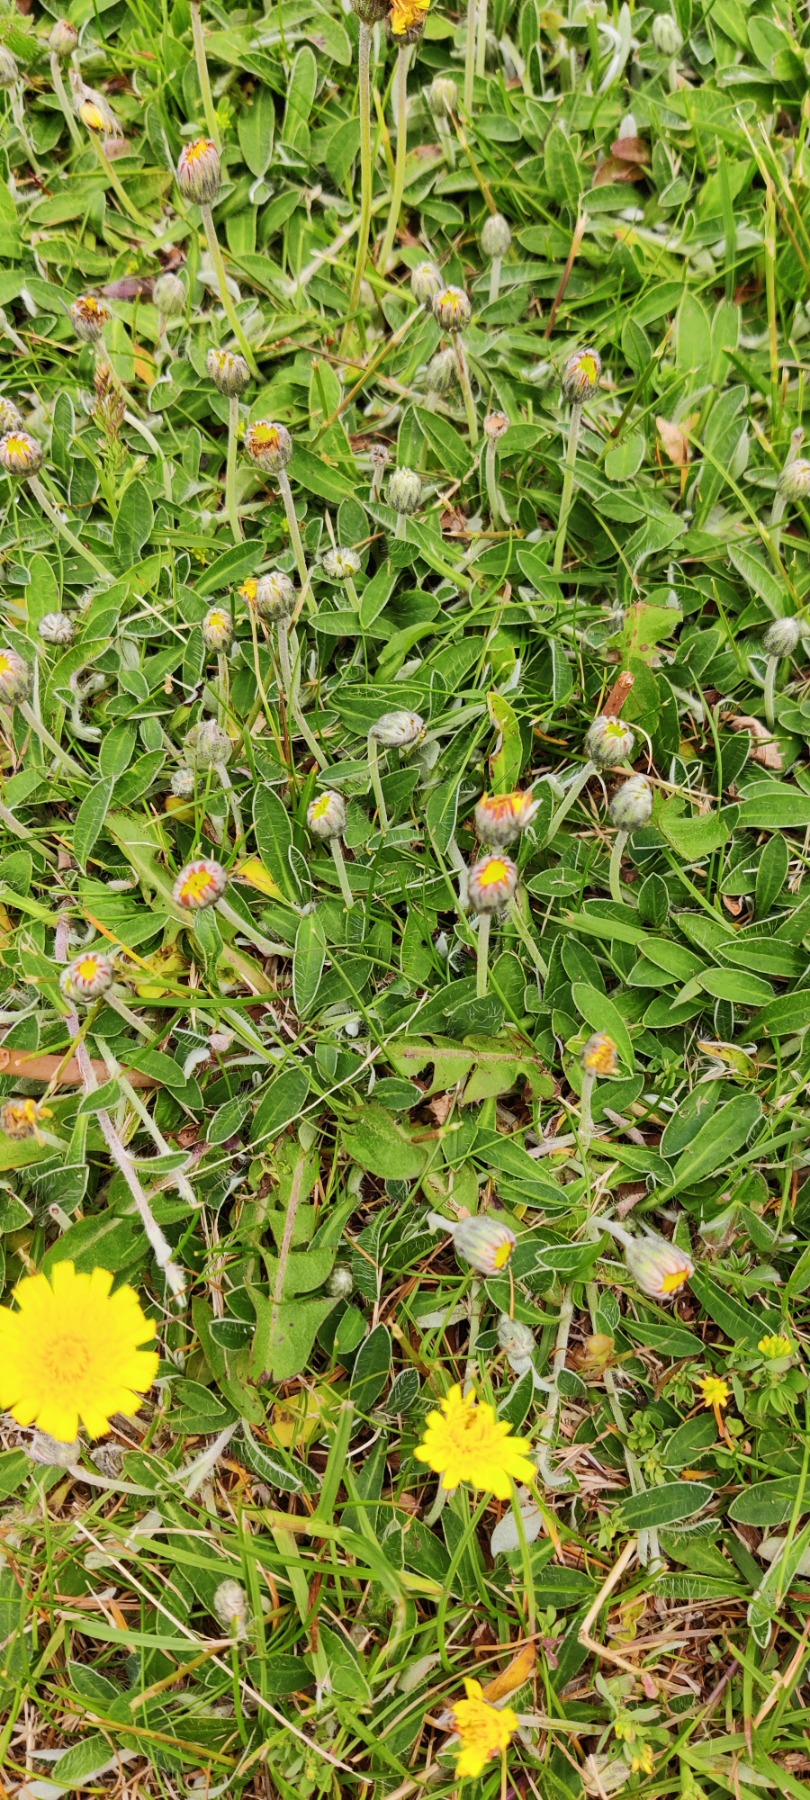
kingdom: Plantae
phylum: Tracheophyta
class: Magnoliopsida
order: Asterales
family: Asteraceae
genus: Pilosella
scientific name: Pilosella officinarum
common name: Håret høgeurt
